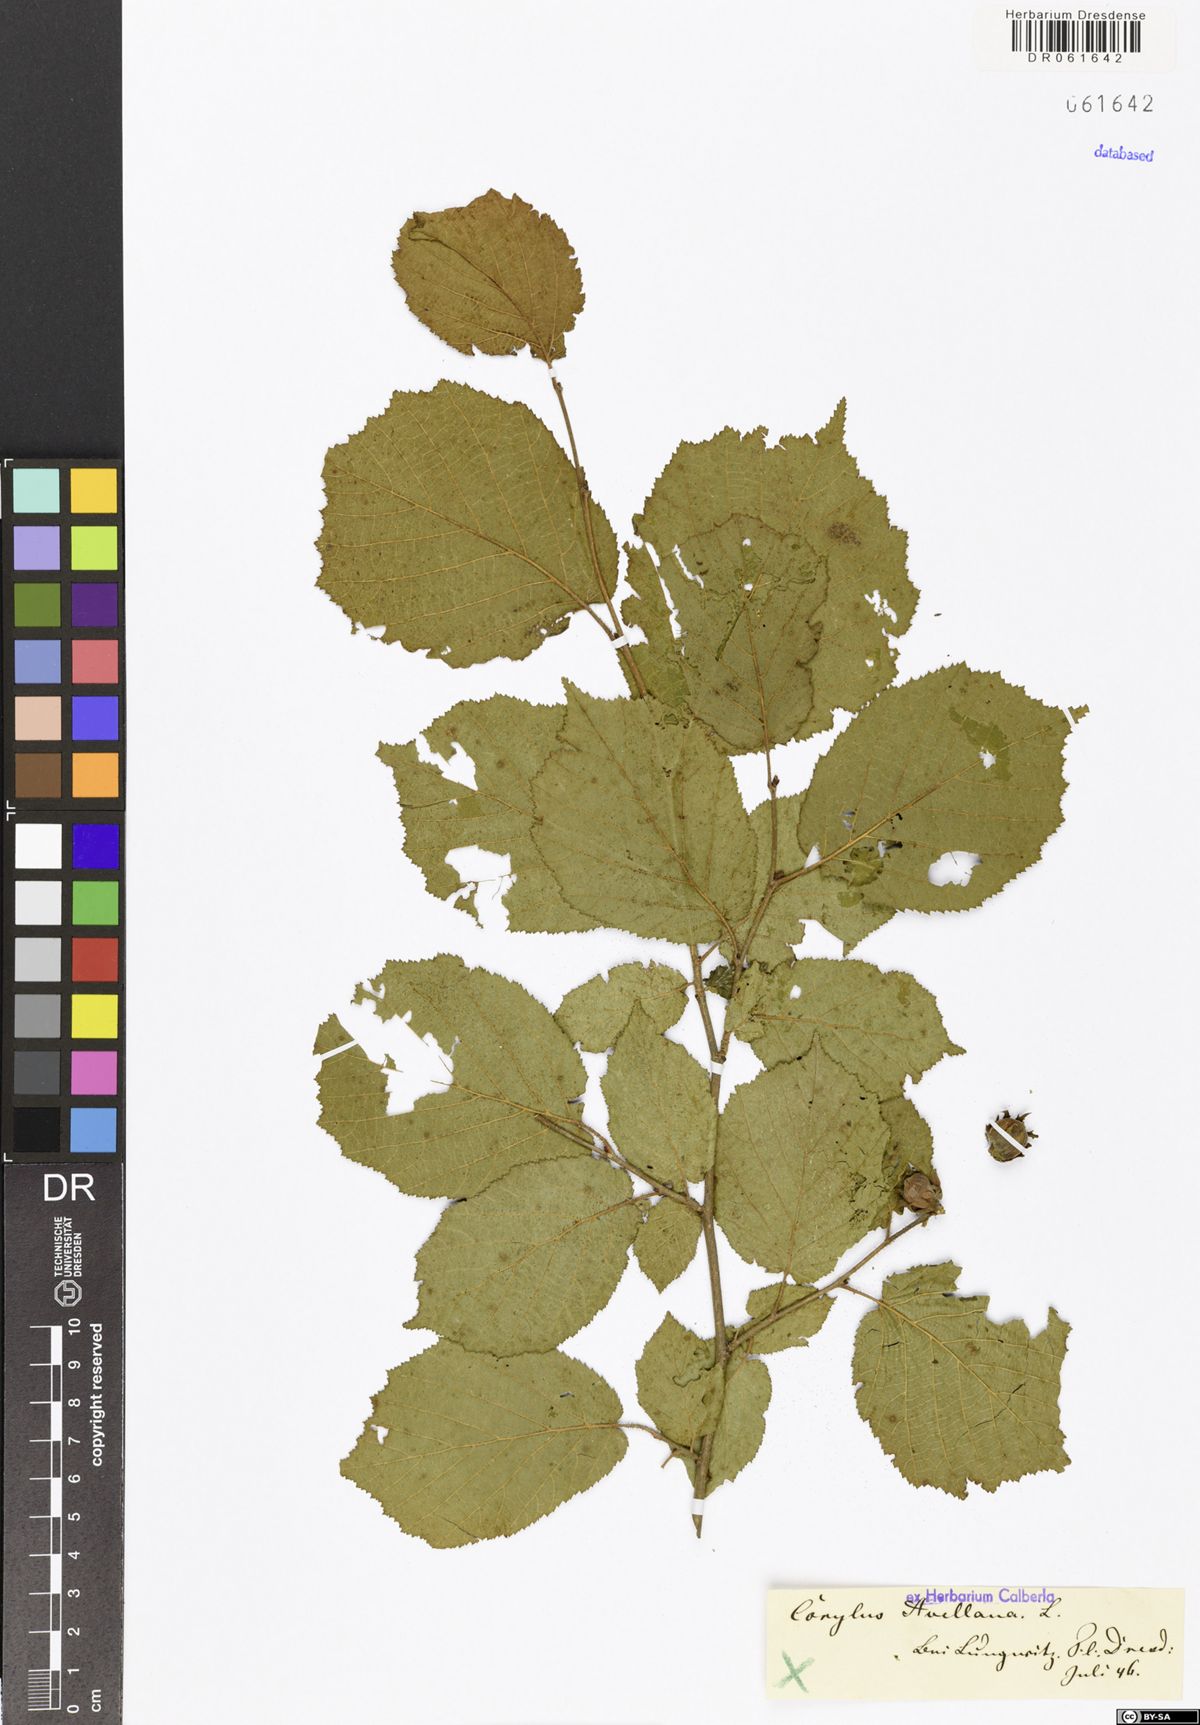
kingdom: Plantae
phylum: Tracheophyta
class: Magnoliopsida
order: Fagales
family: Betulaceae
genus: Corylus
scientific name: Corylus avellana
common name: European hazel
